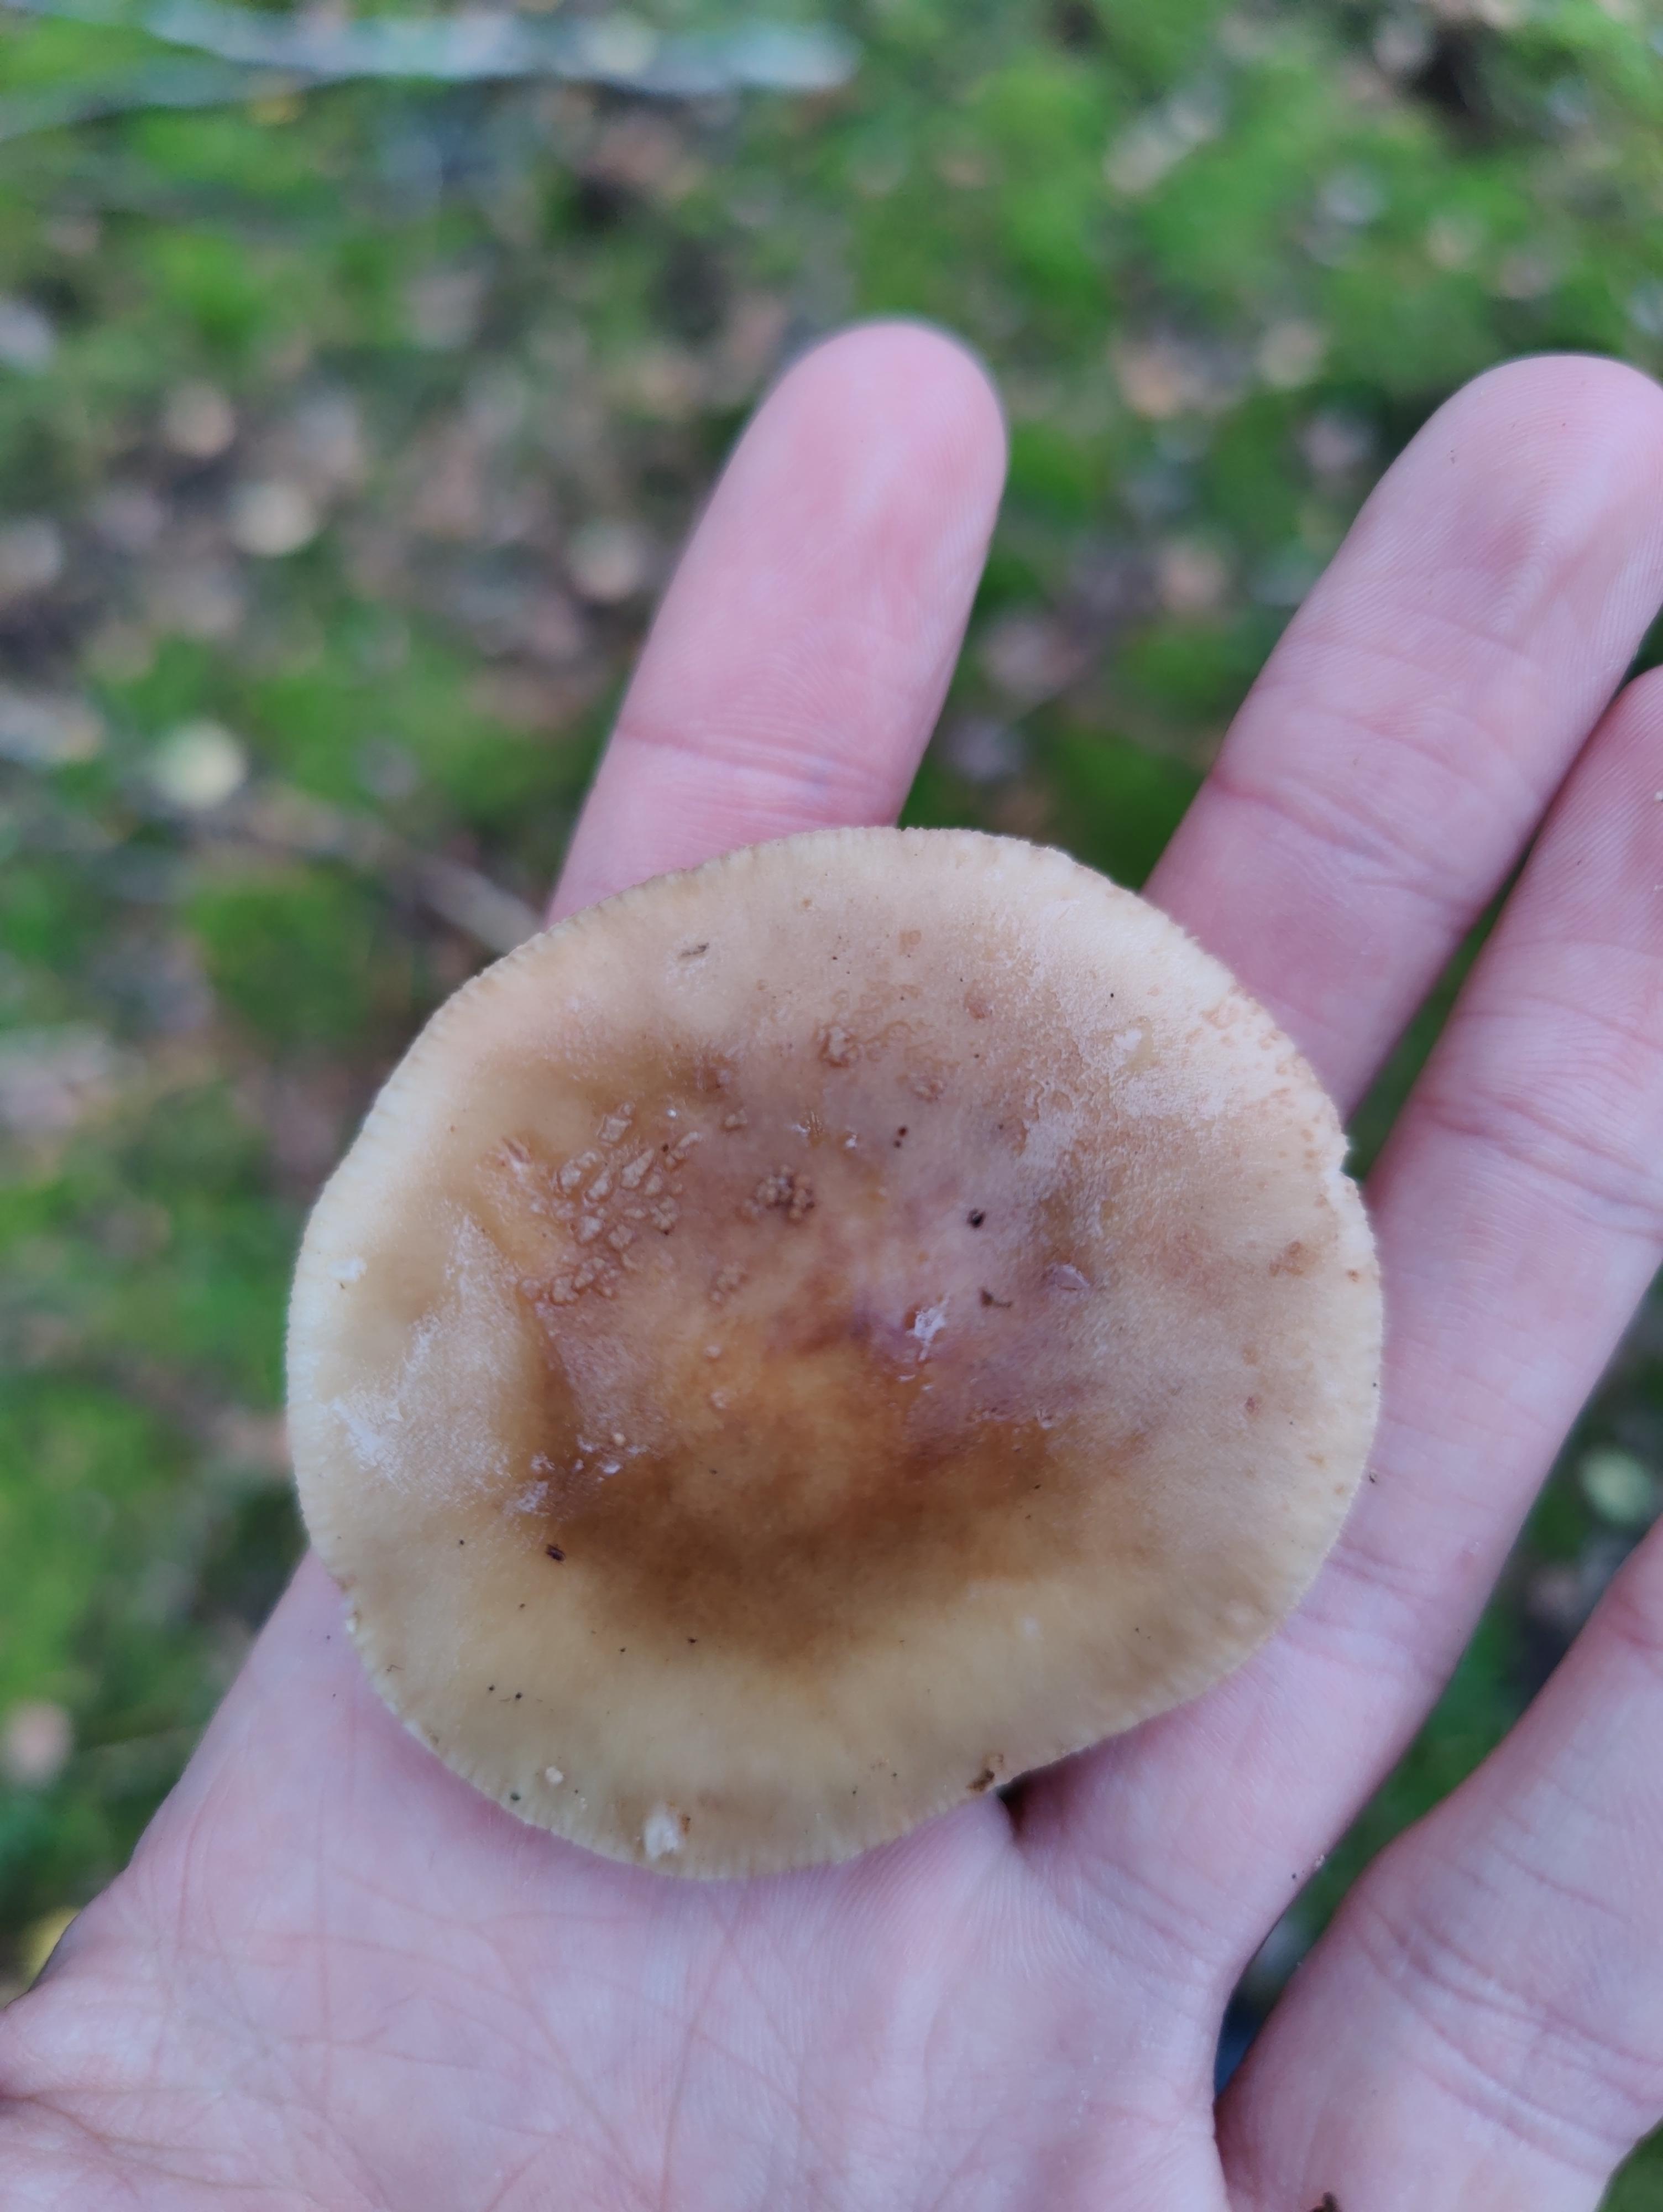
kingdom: Fungi
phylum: Basidiomycota
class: Agaricomycetes
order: Agaricales
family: Amanitaceae
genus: Amanita
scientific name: Amanita rubescens
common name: rødmende fluesvamp
